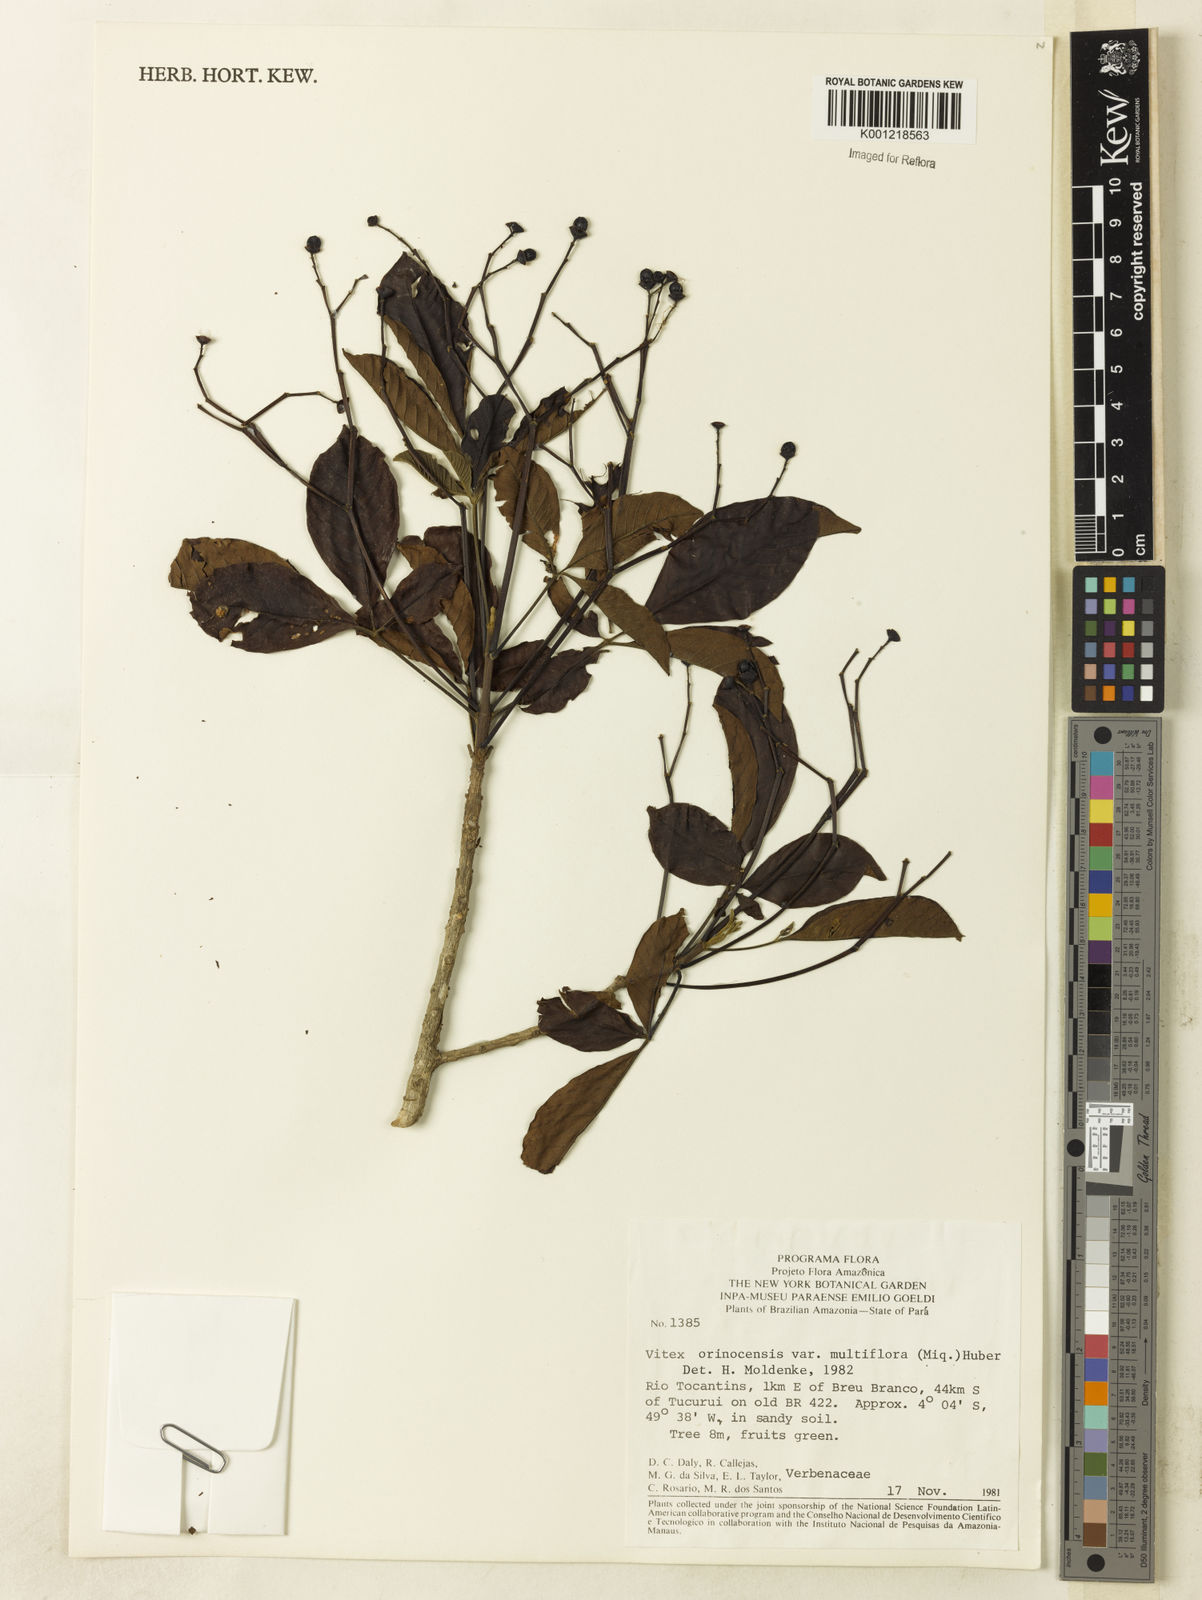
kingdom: Plantae
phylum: Tracheophyta
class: Magnoliopsida
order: Lamiales
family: Lamiaceae
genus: Vitex
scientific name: Vitex orinocensis
